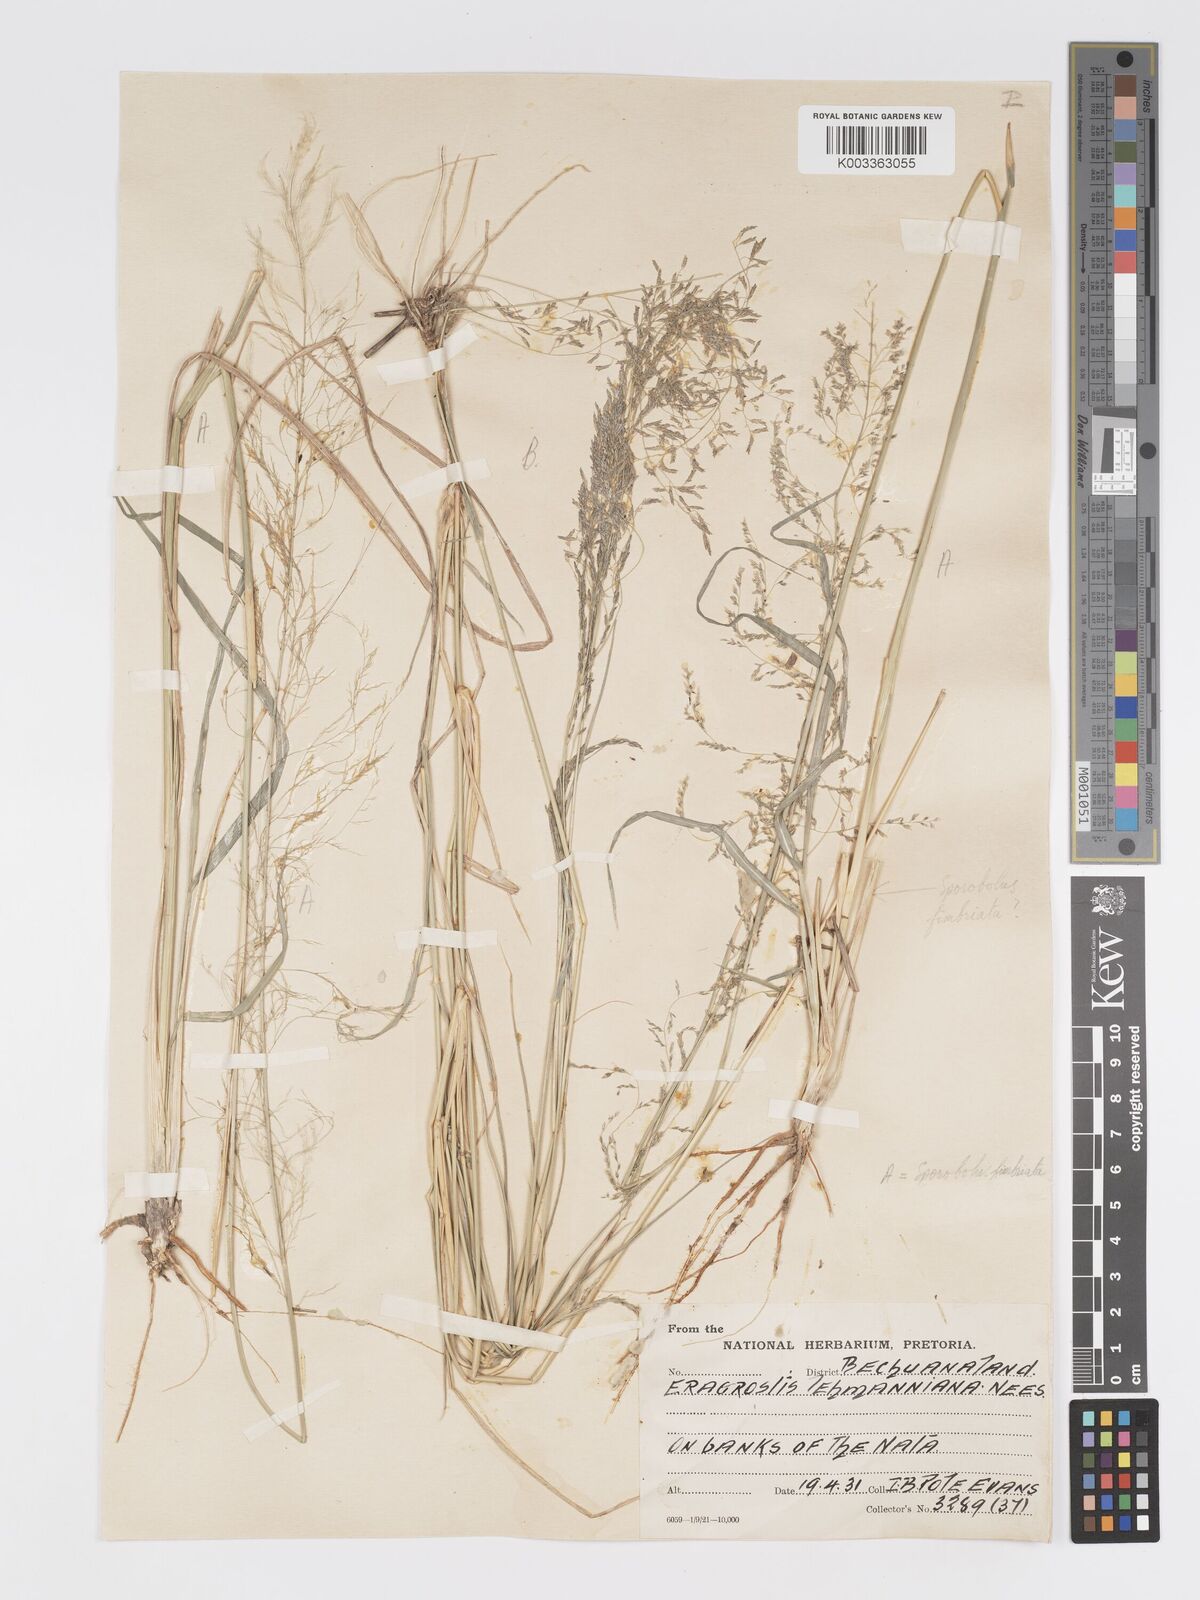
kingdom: Plantae
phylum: Tracheophyta
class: Liliopsida
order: Poales
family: Poaceae
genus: Eragrostis
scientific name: Eragrostis cylindriflora
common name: Cylinderflower lovegrass
